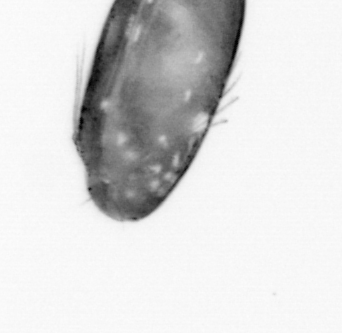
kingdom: Animalia
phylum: Arthropoda
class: Copepoda
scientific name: Copepoda
